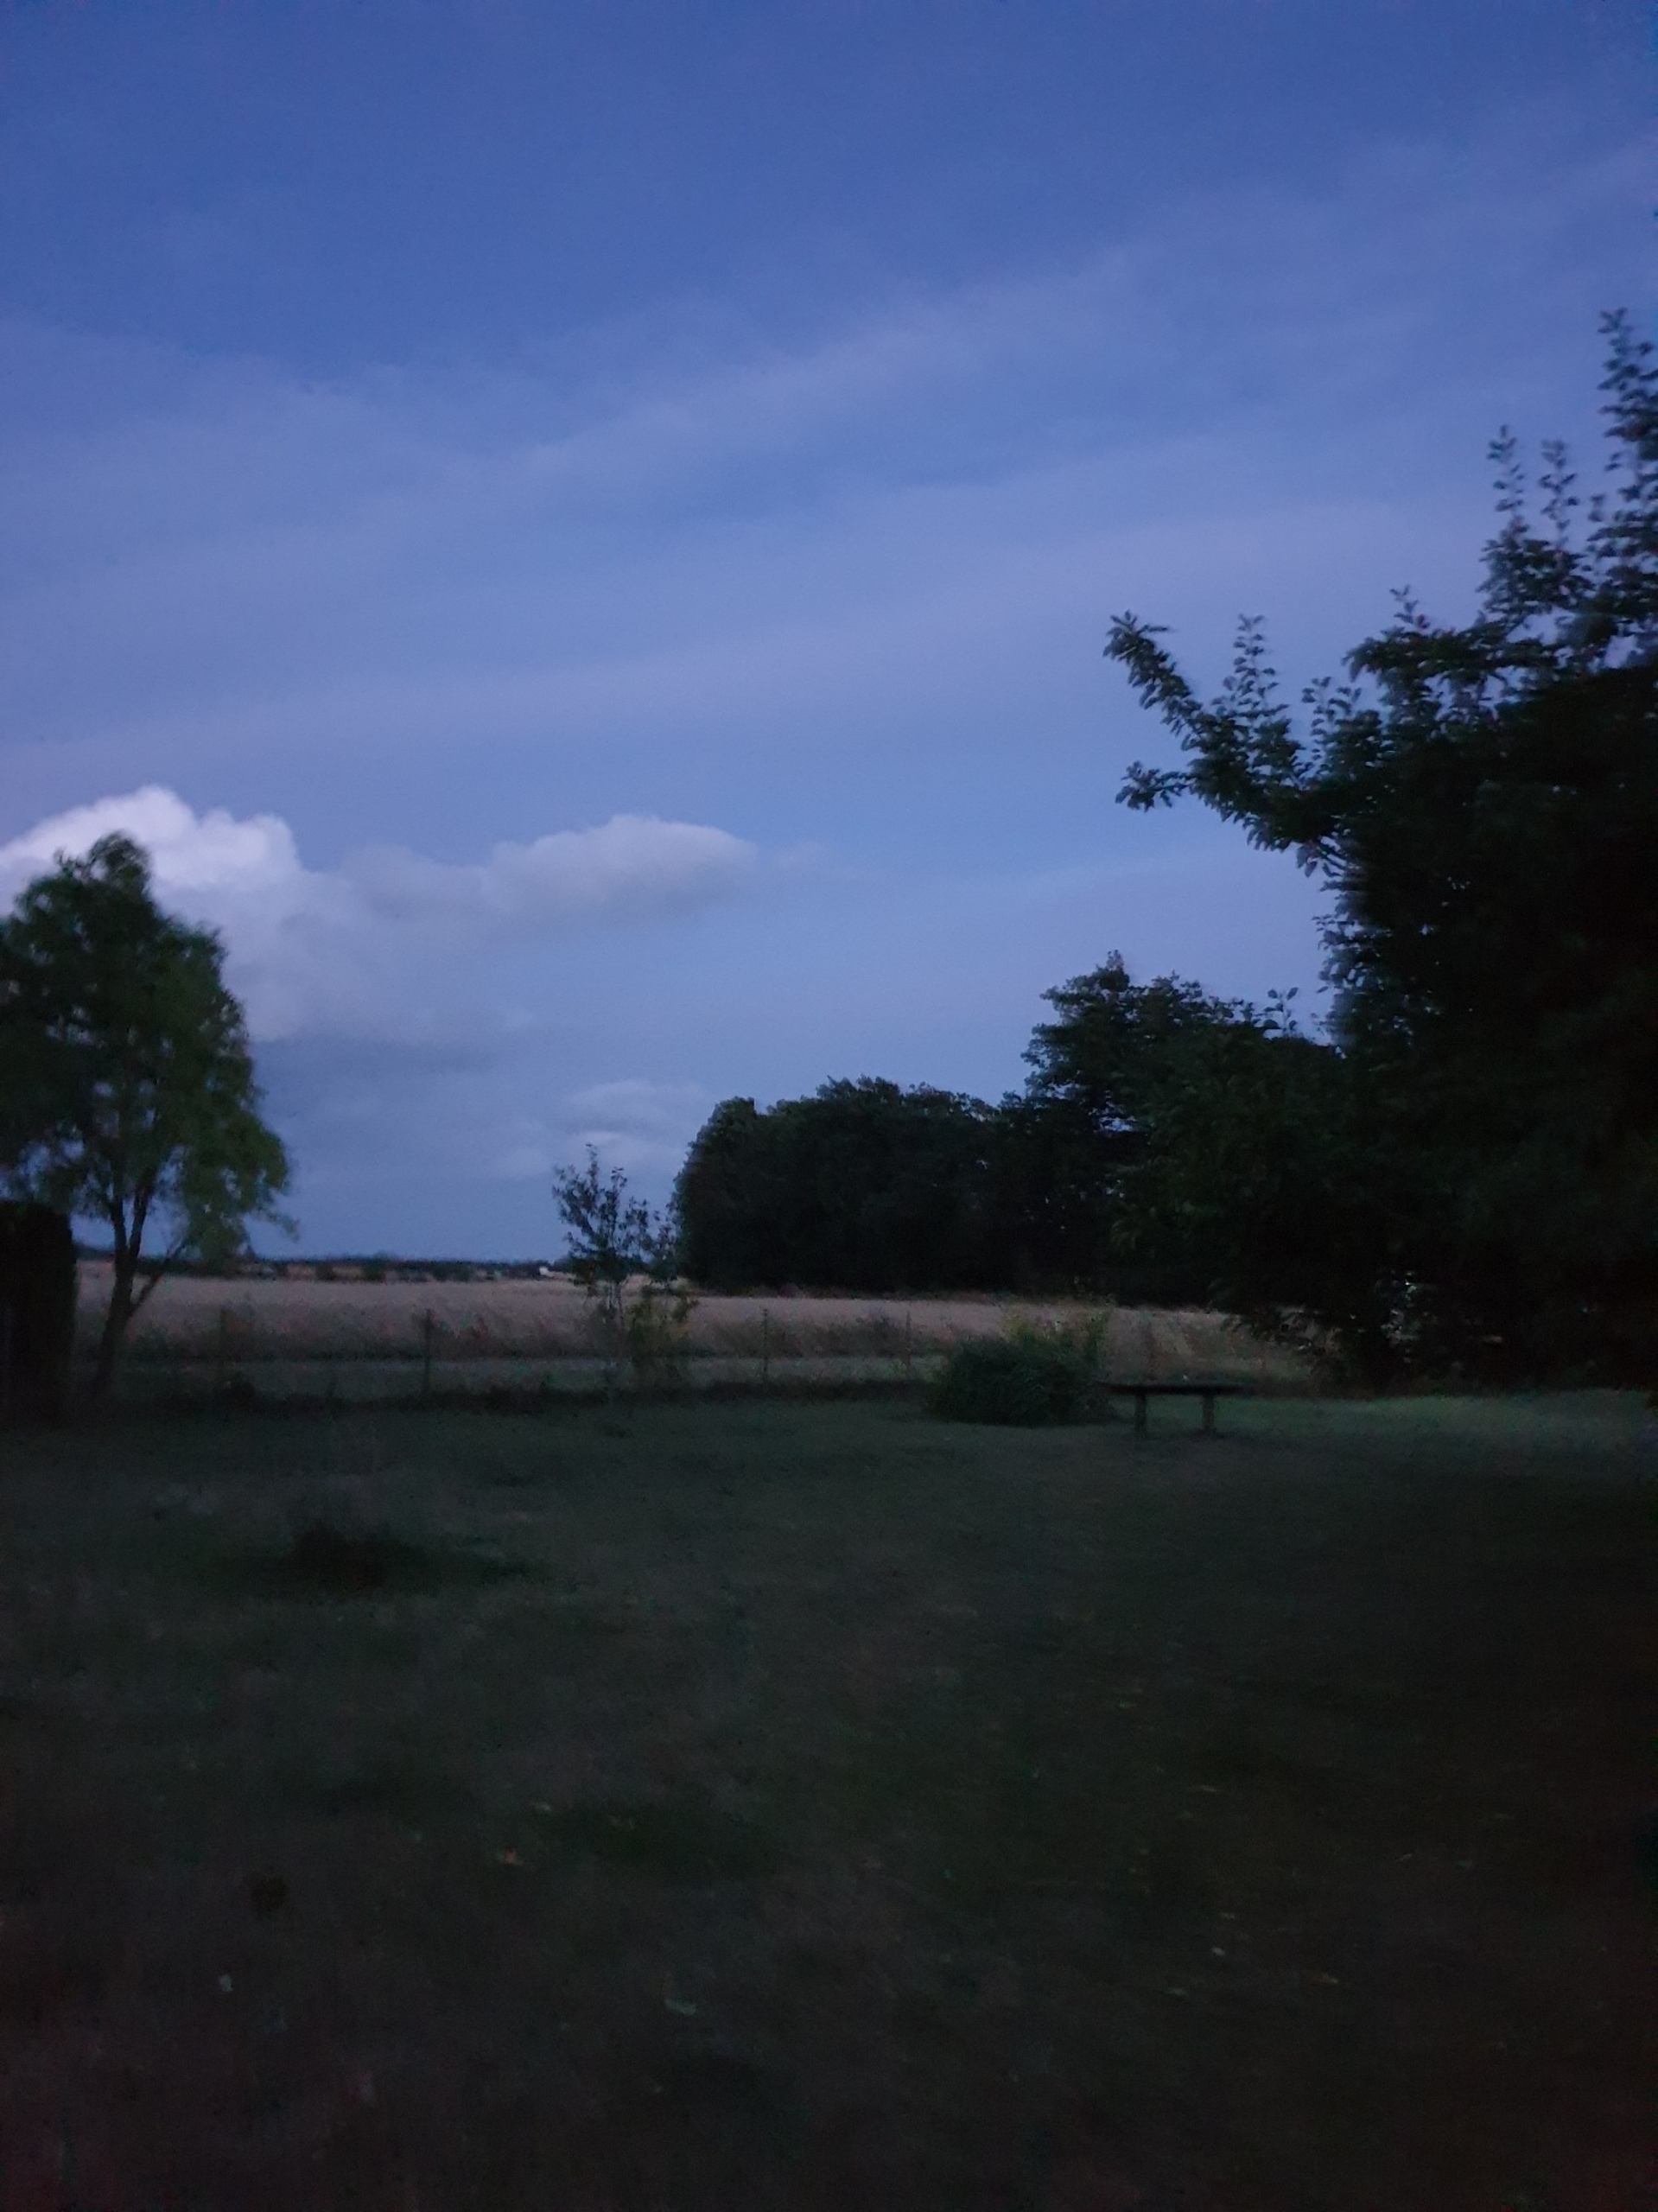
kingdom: Animalia
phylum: Chordata
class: Mammalia
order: Chiroptera
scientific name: Chiroptera
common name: Flagermus
